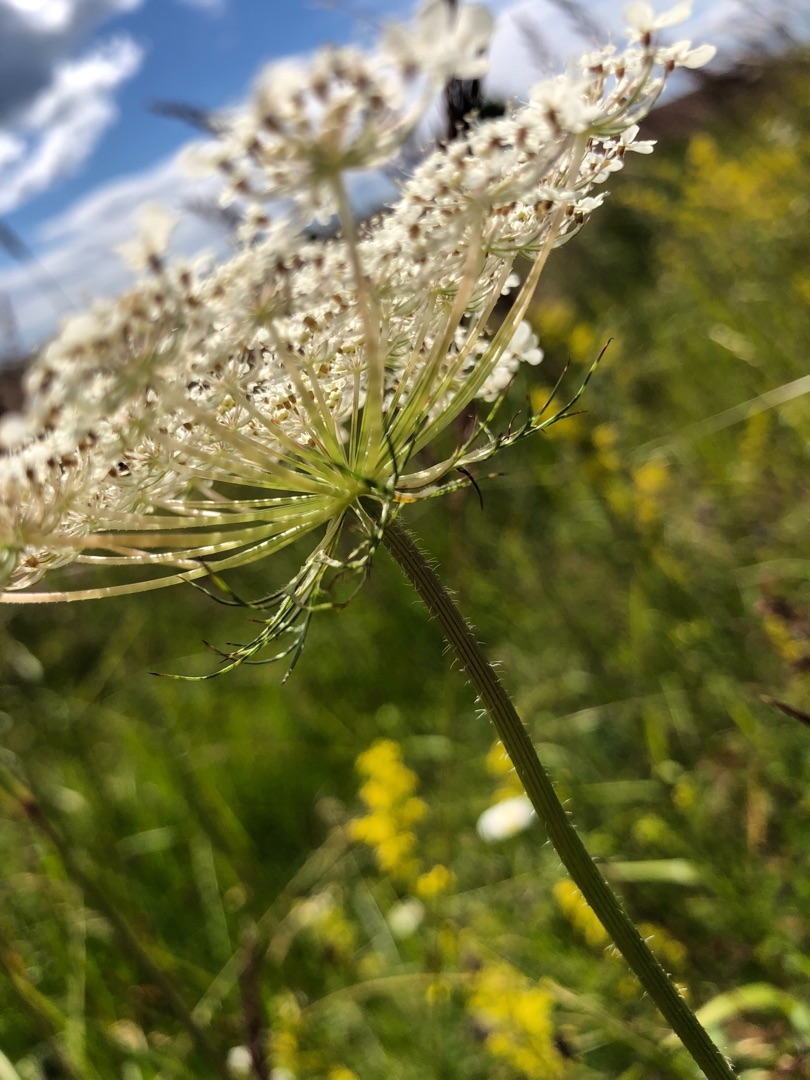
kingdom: Plantae
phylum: Tracheophyta
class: Magnoliopsida
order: Apiales
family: Apiaceae
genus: Daucus
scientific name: Daucus carota
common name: Vild gulerod
